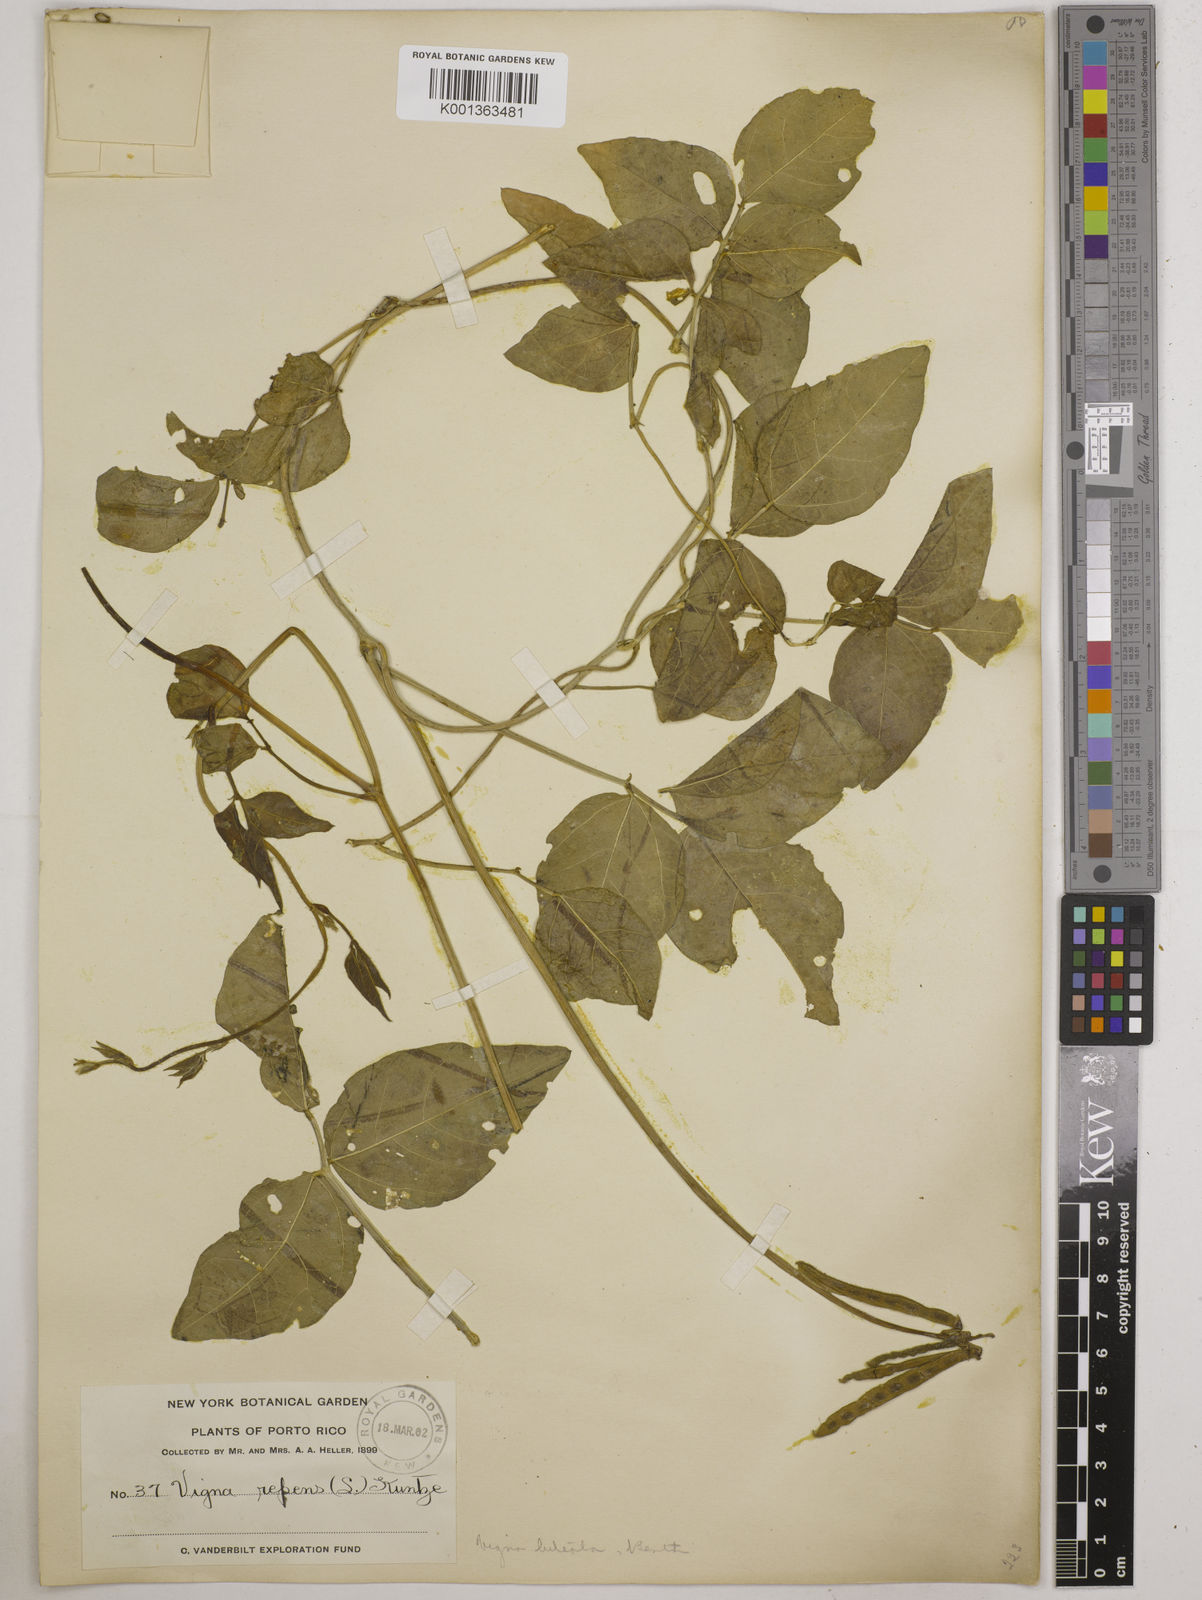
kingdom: Plantae
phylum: Tracheophyta
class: Magnoliopsida
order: Fabales
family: Fabaceae
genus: Vigna
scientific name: Vigna luteola
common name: Hairypod cowpea
